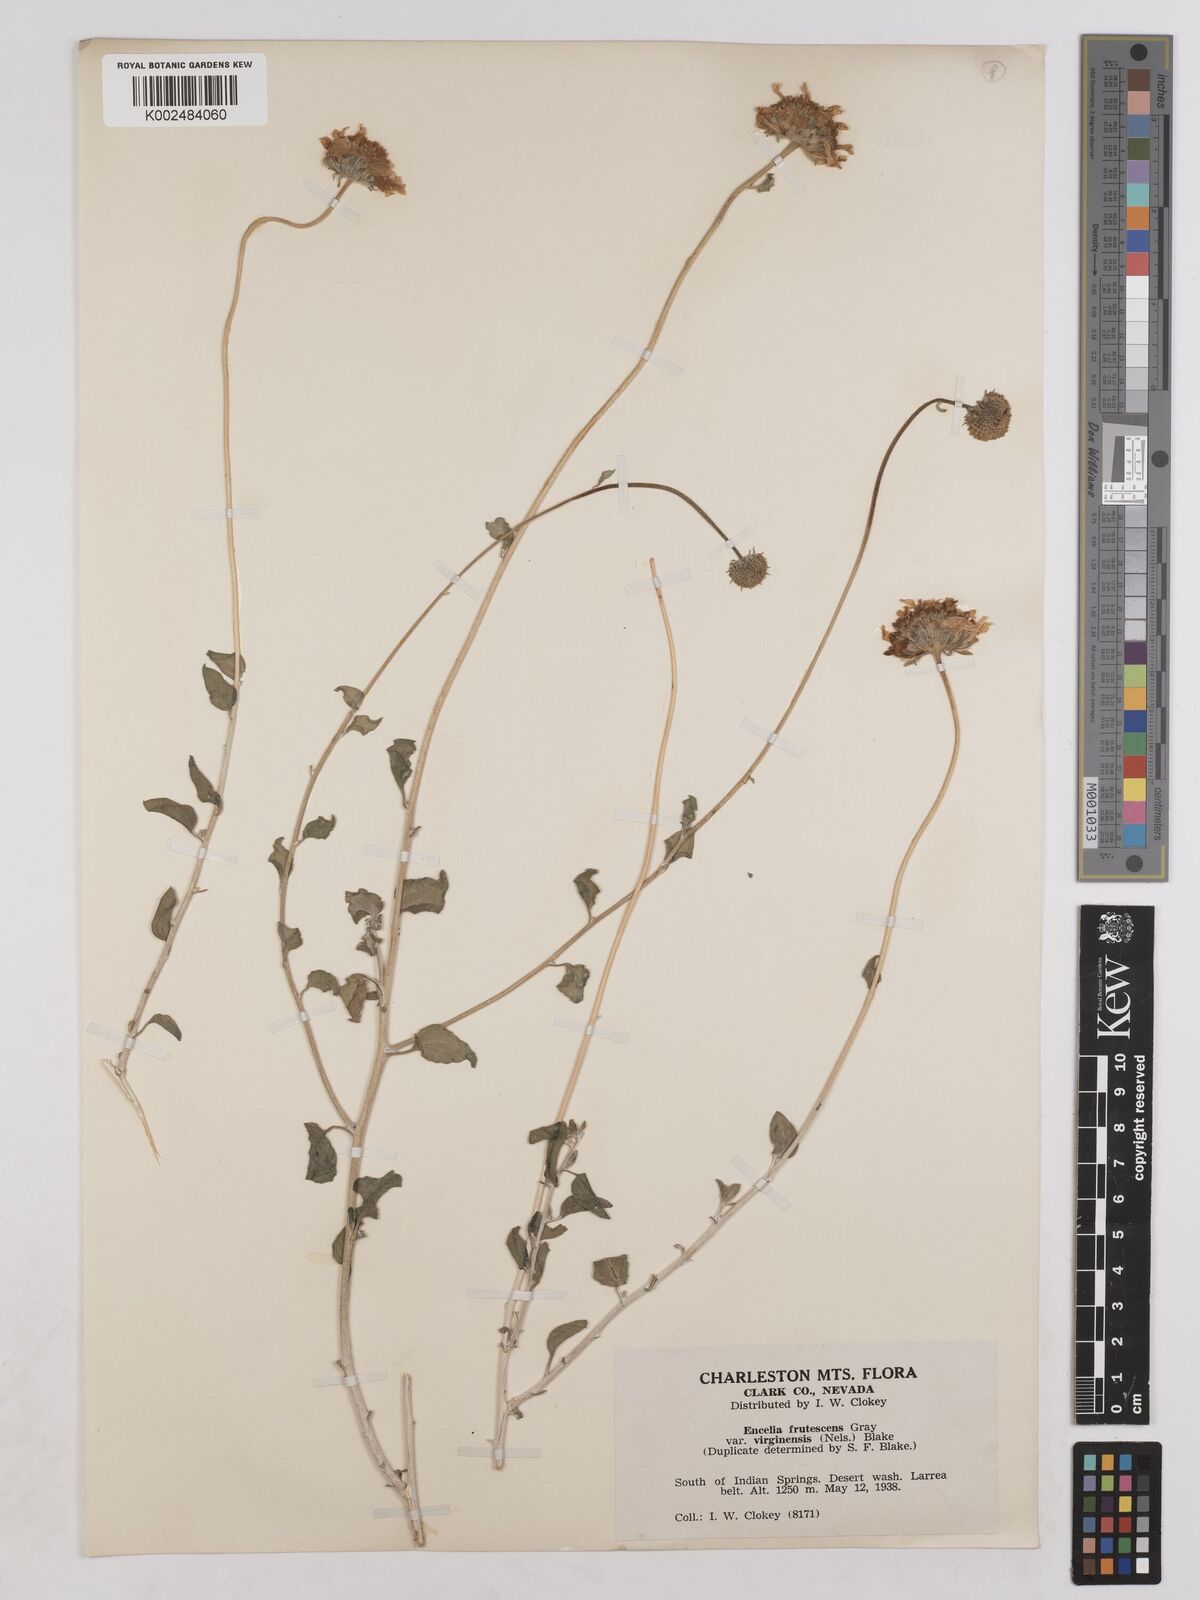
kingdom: Plantae
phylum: Tracheophyta
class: Magnoliopsida
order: Asterales
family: Asteraceae
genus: Encelia
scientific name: Encelia virginensis
